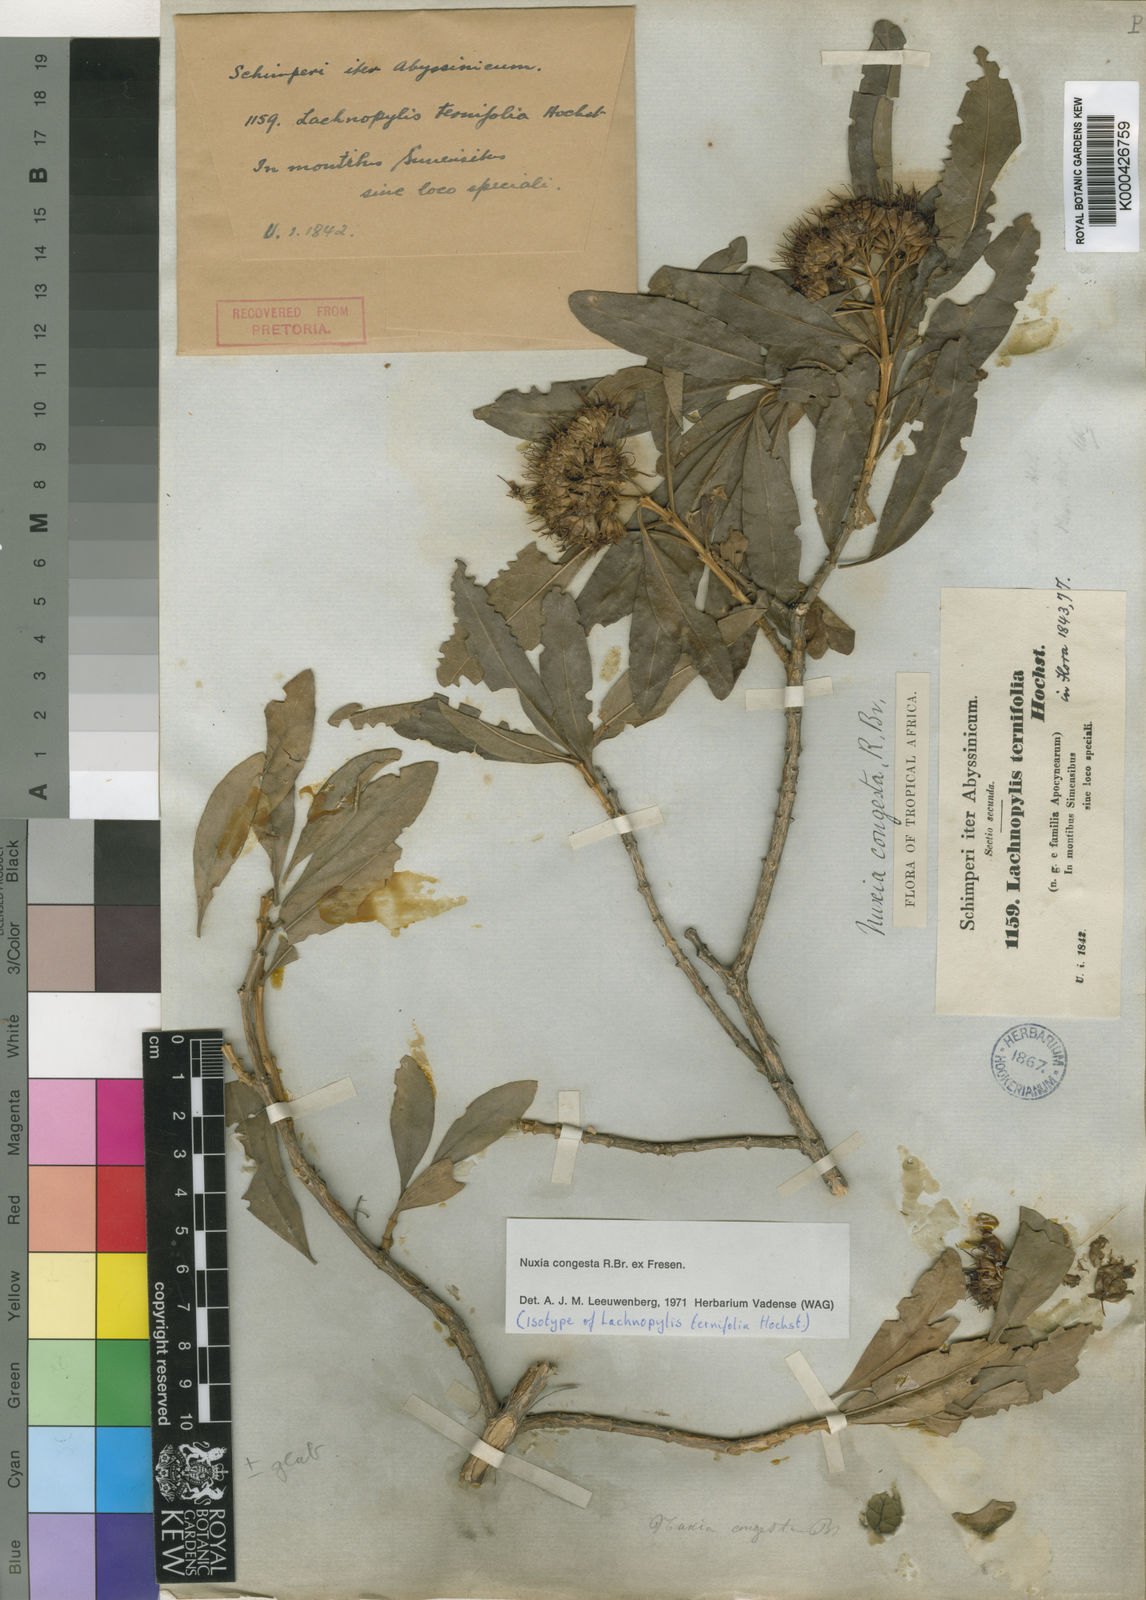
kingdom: Plantae
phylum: Tracheophyta
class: Magnoliopsida
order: Lamiales
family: Stilbaceae
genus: Nuxia
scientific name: Nuxia congesta
